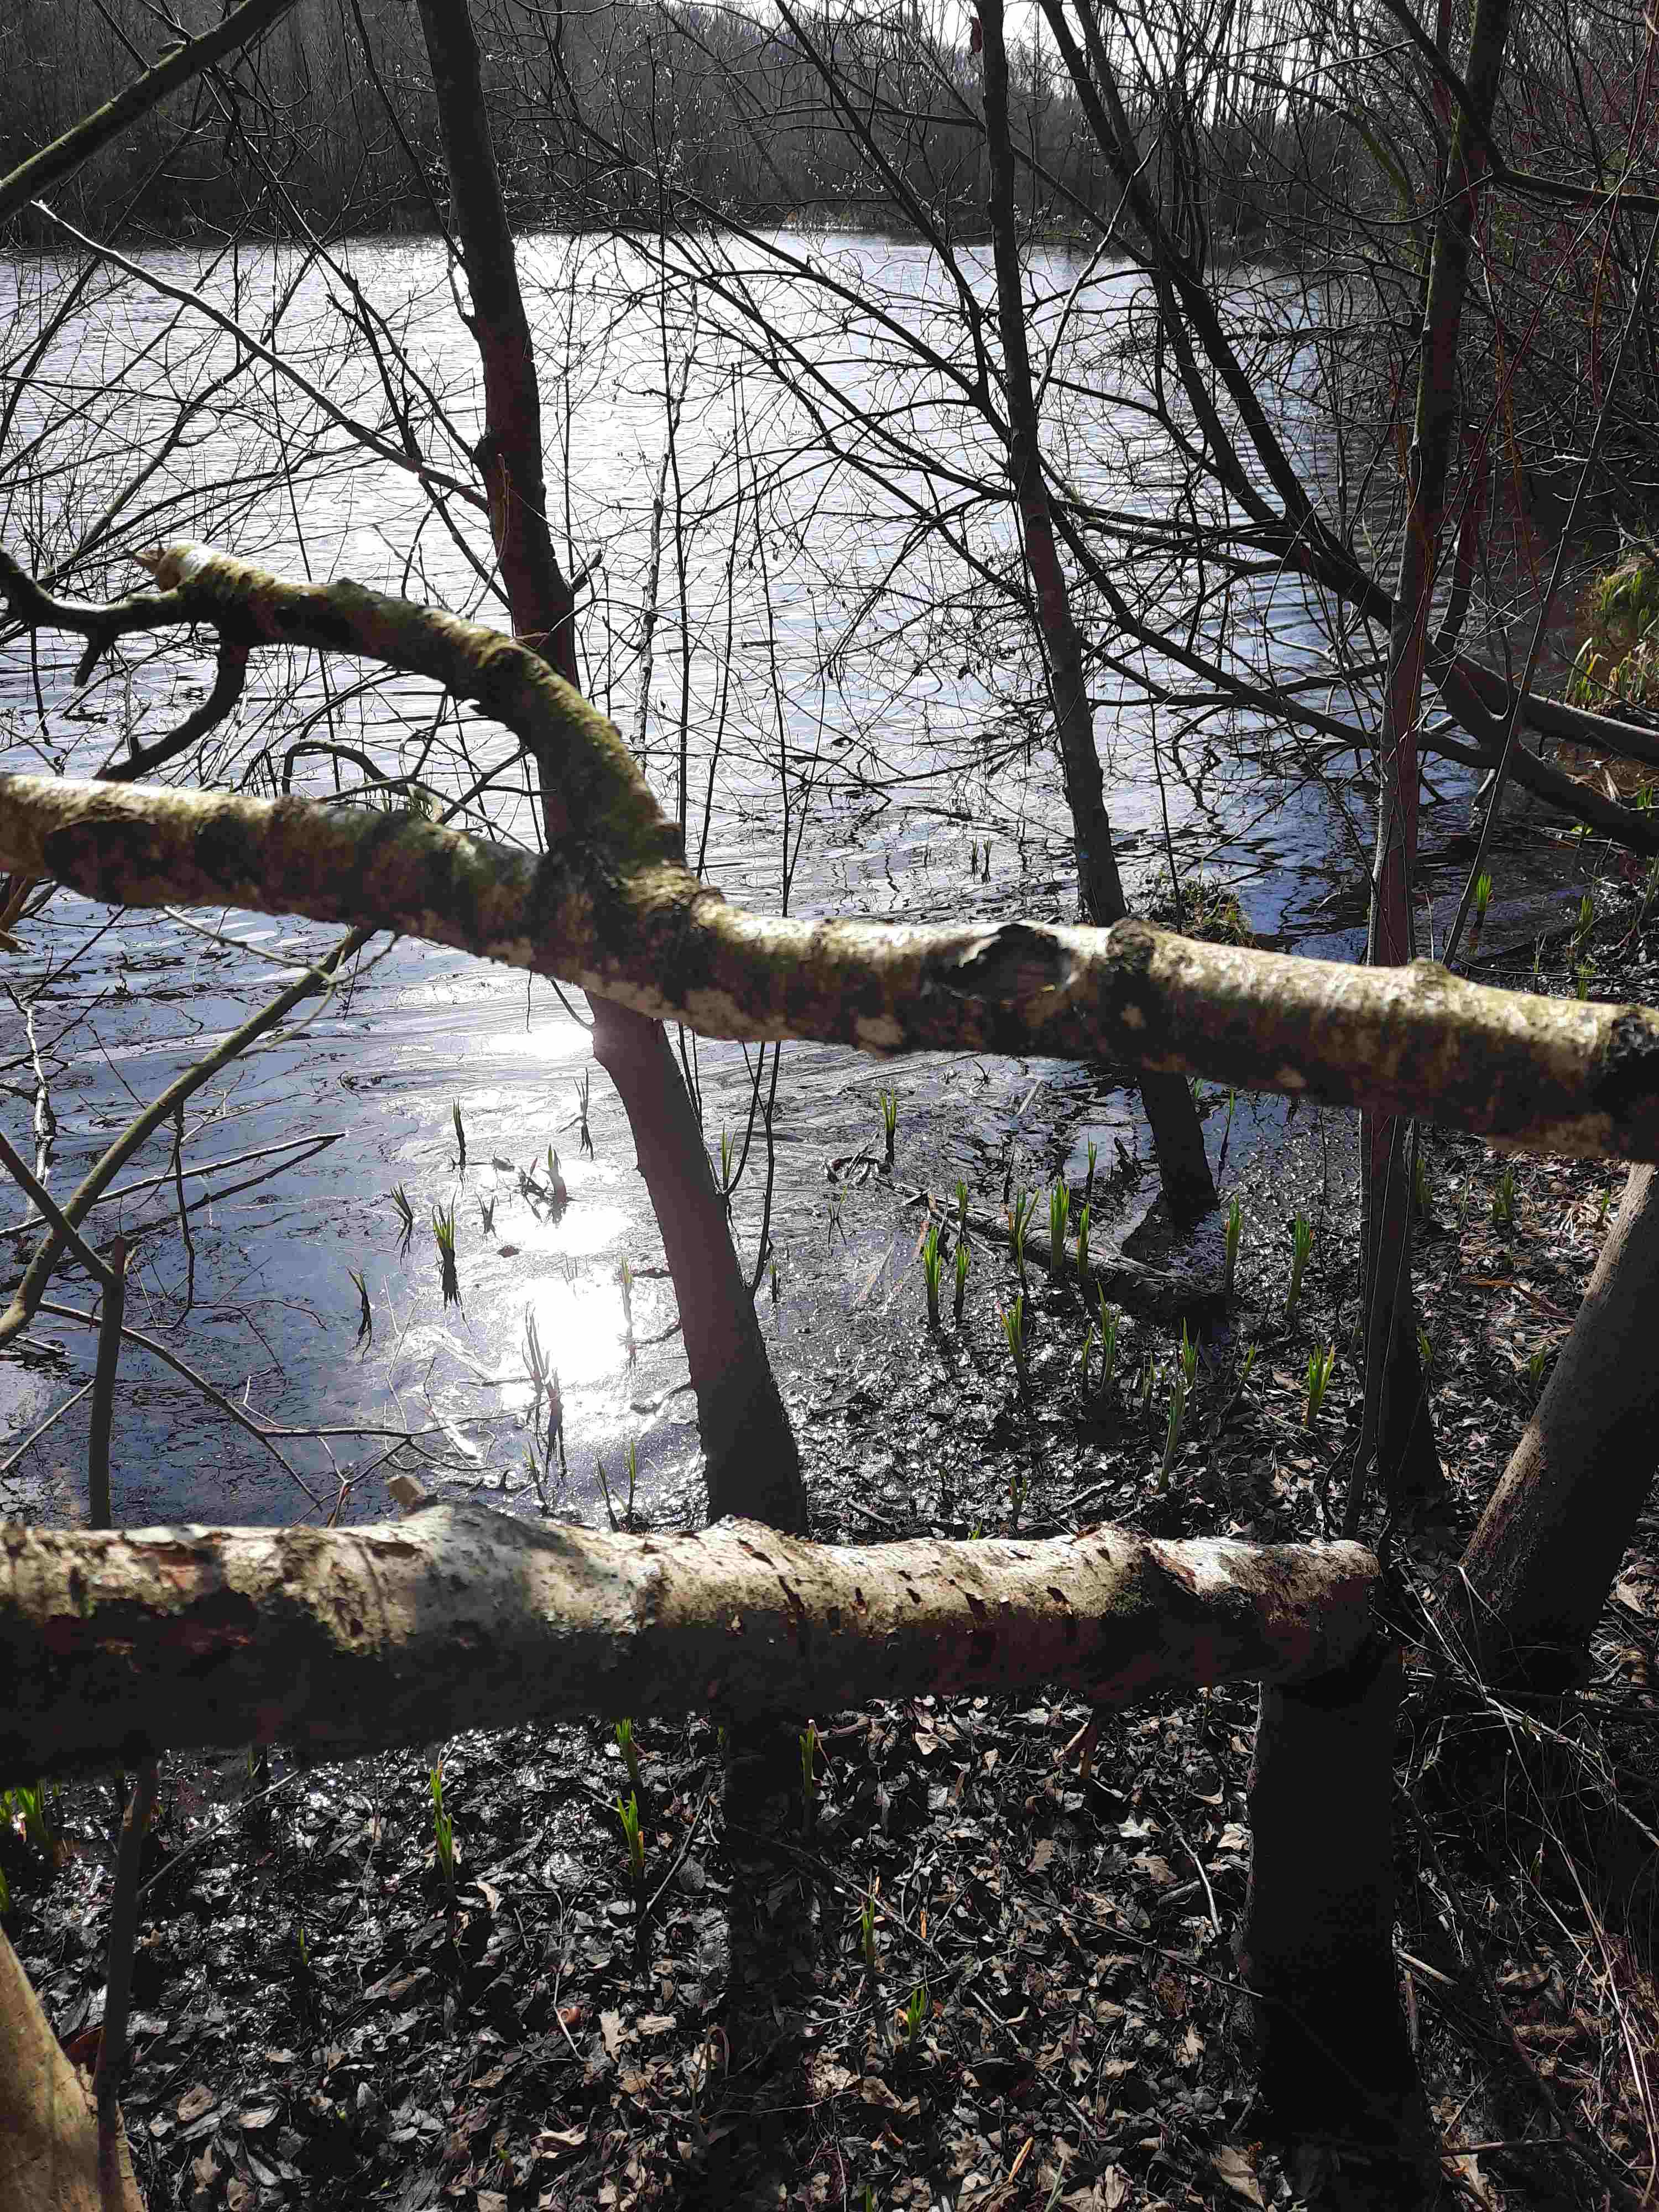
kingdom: Fungi
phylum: Basidiomycota
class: Agaricomycetes
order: Auriculariales
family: Auriculariaceae
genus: Exidia
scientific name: Exidia nigricans
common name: almindelig bævretop
